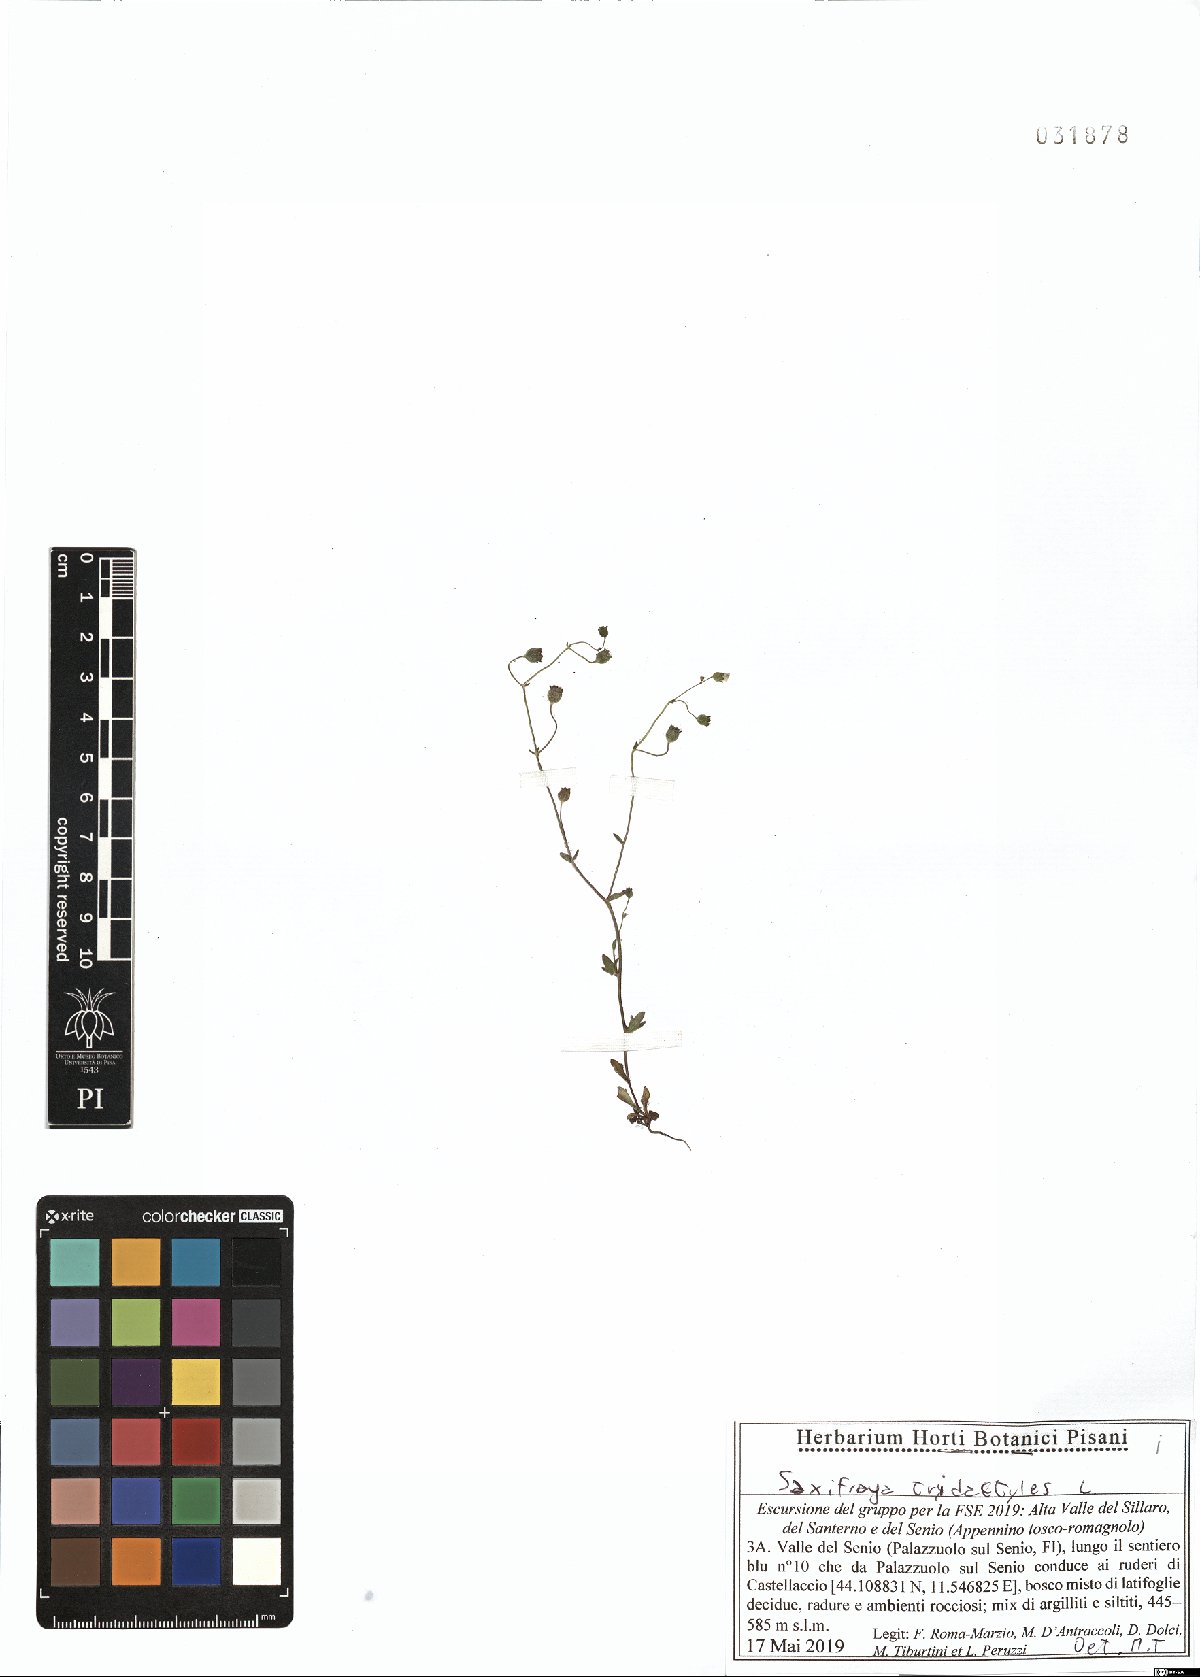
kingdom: Plantae
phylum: Tracheophyta
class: Magnoliopsida
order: Saxifragales
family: Saxifragaceae
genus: Saxifraga
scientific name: Saxifraga tridactylites
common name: Rue-leaved saxifrage
